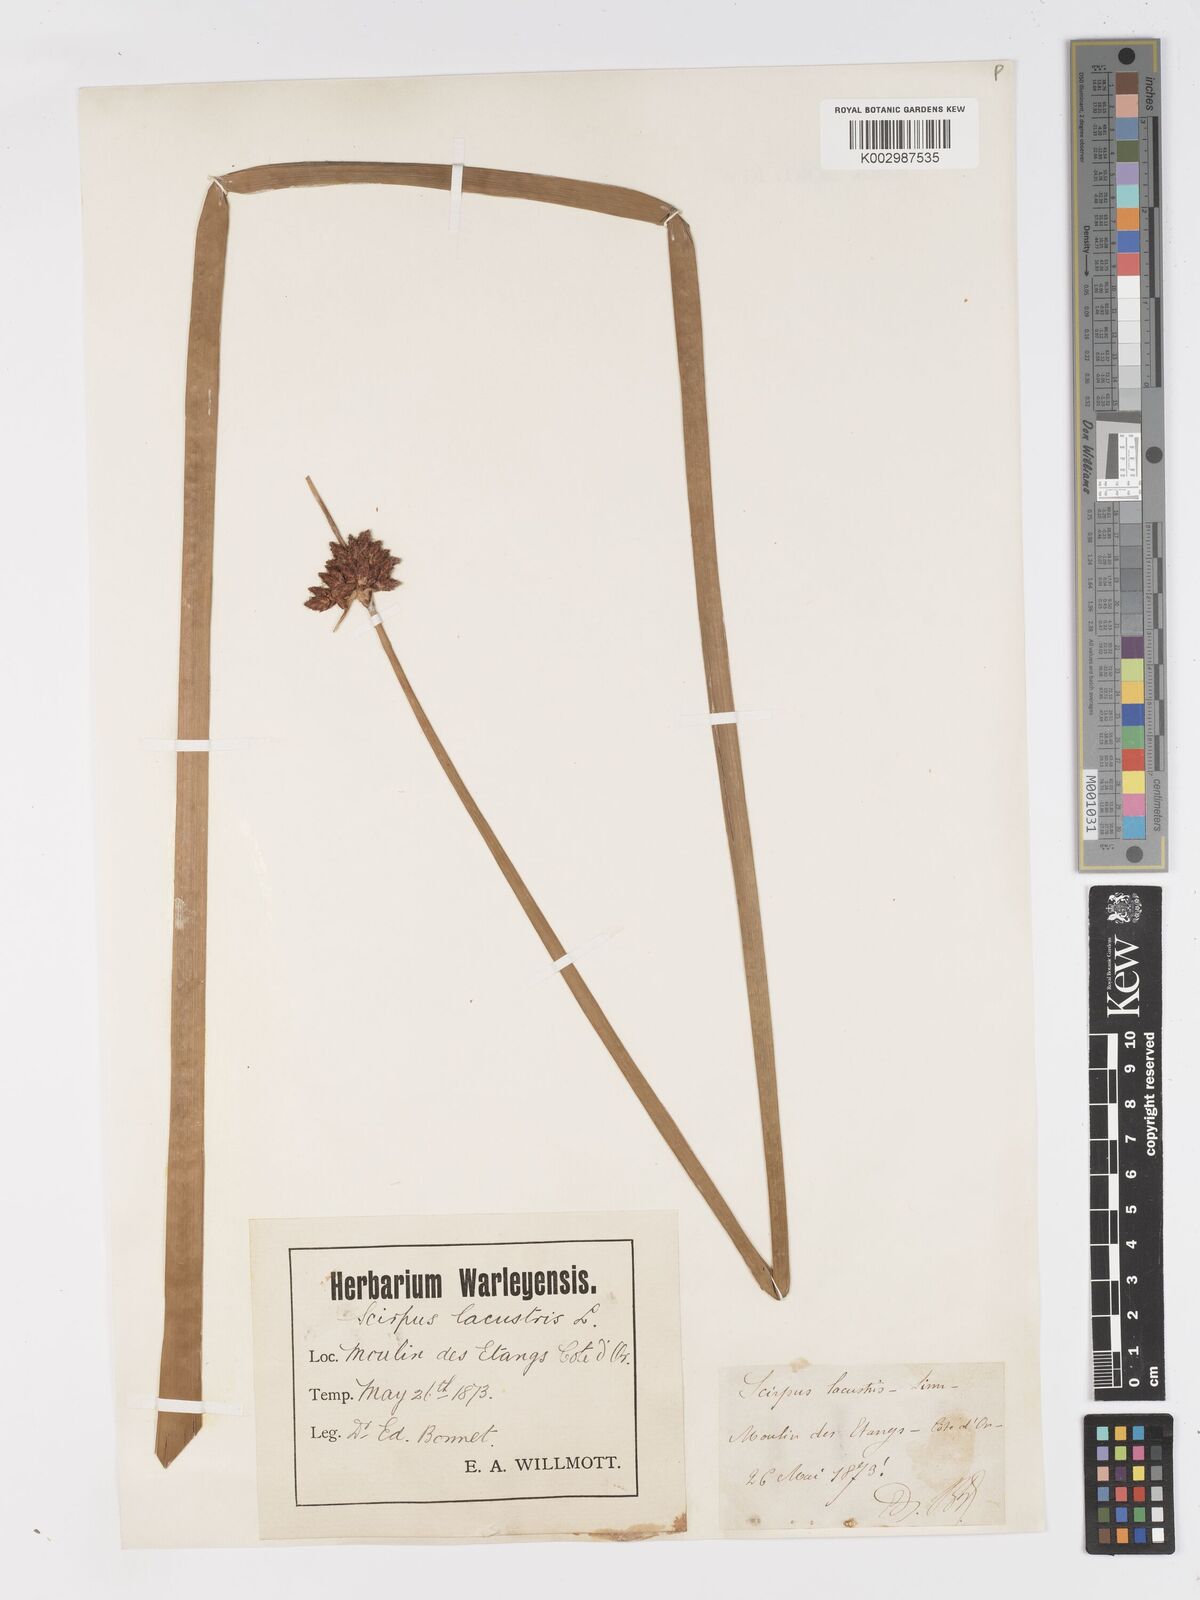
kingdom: Plantae
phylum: Tracheophyta
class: Liliopsida
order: Poales
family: Cyperaceae
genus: Schoenoplectus
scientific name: Schoenoplectus lacustris
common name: Common club-rush
